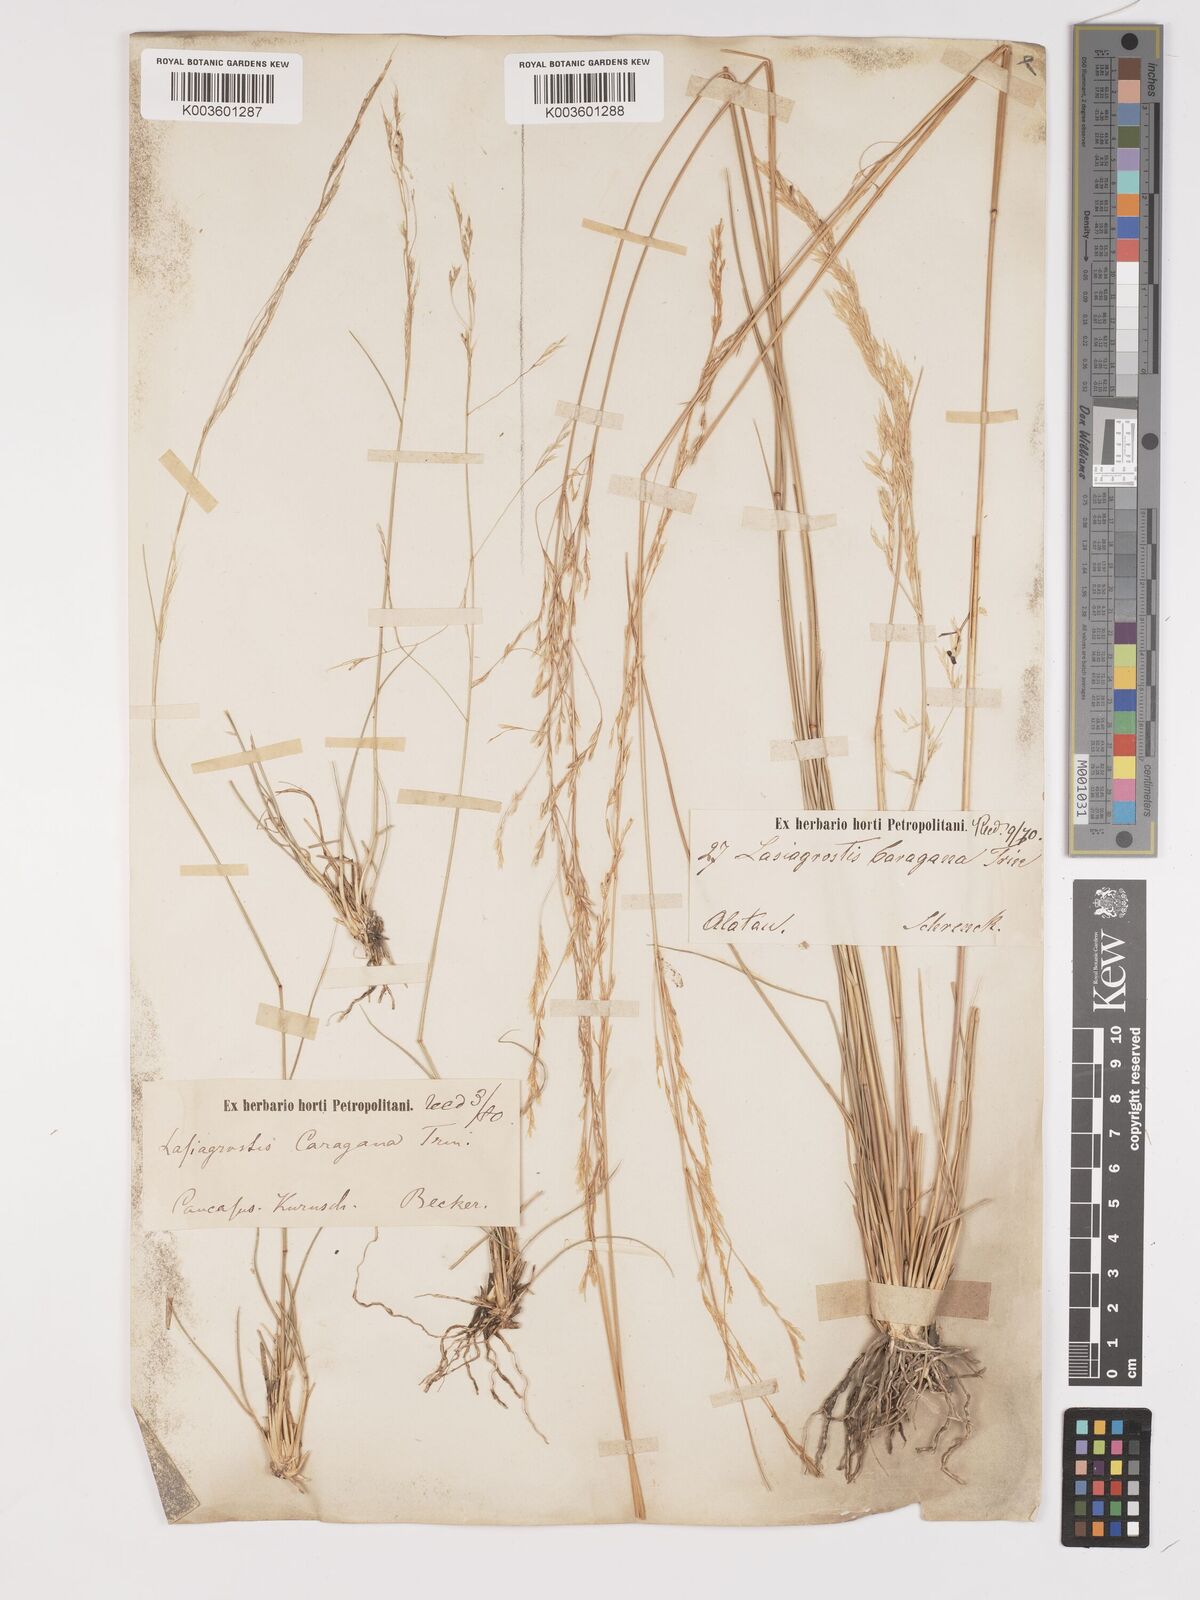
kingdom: Plantae
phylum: Tracheophyta
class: Liliopsida
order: Poales
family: Poaceae
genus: Stipa
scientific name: Stipa conferta
